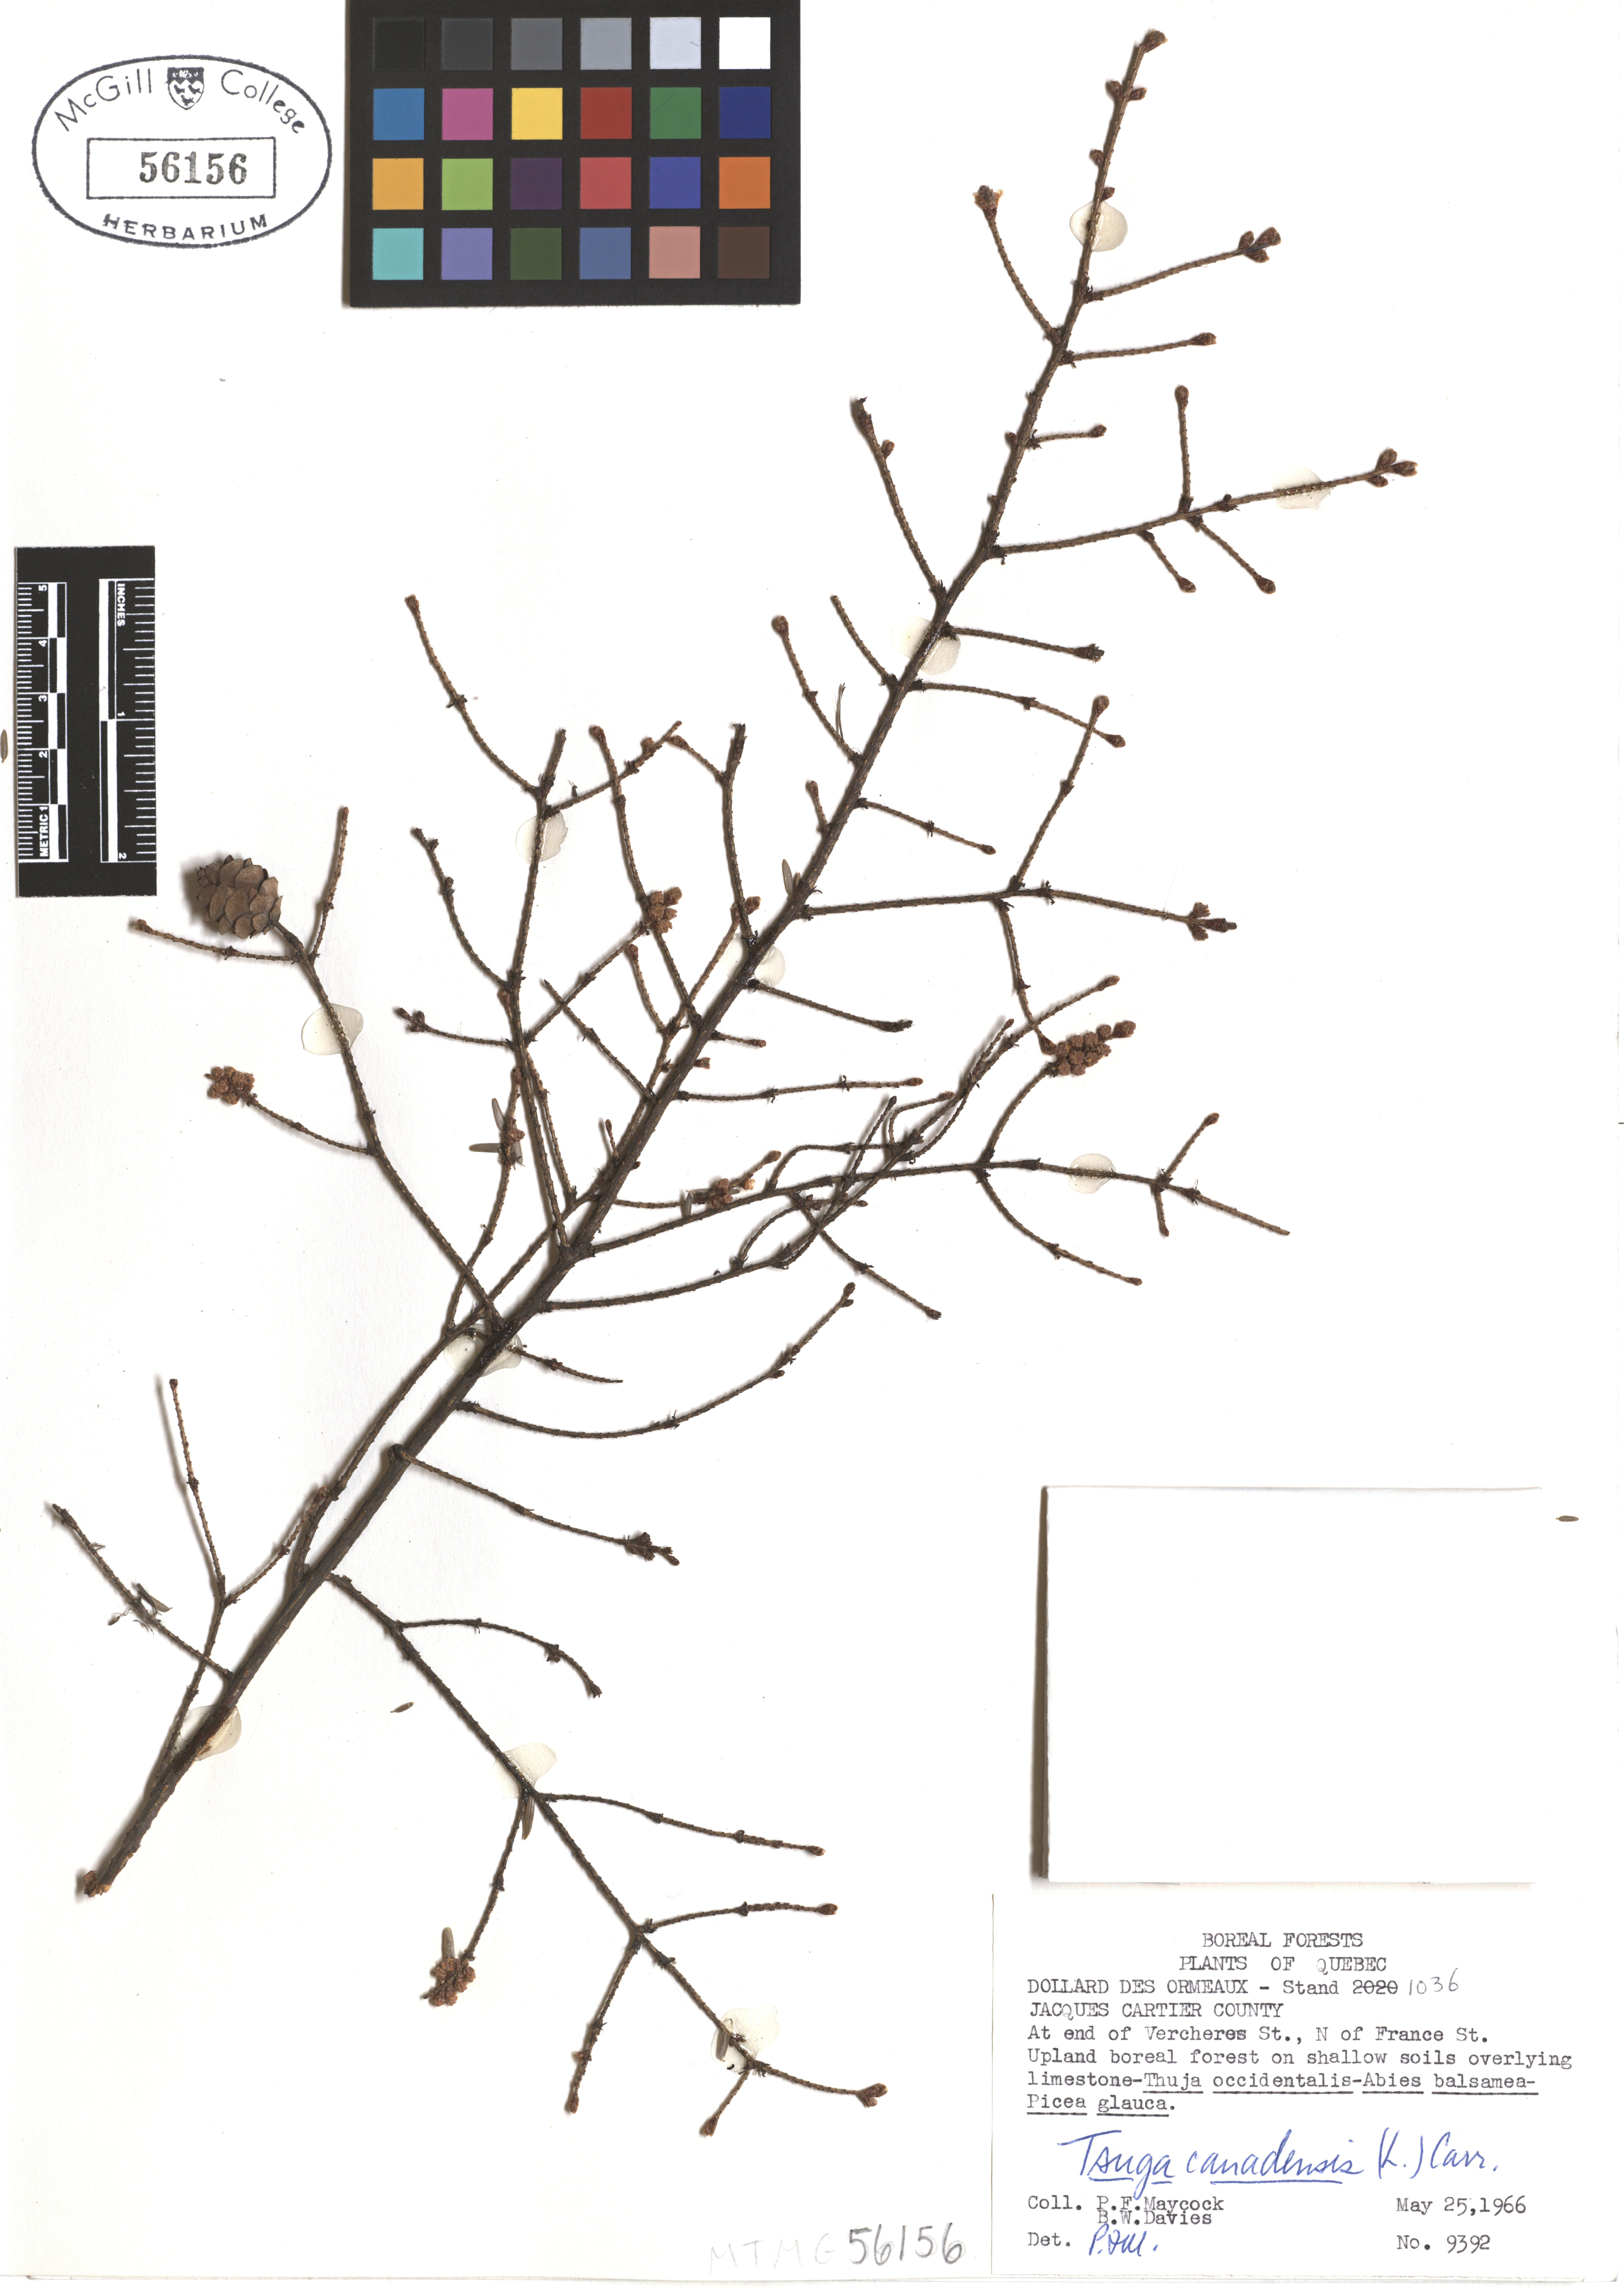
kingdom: Plantae
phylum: Tracheophyta
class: Pinopsida
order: Pinales
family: Pinaceae
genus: Tsuga
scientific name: Tsuga canadensis
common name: Eastern hemlock
